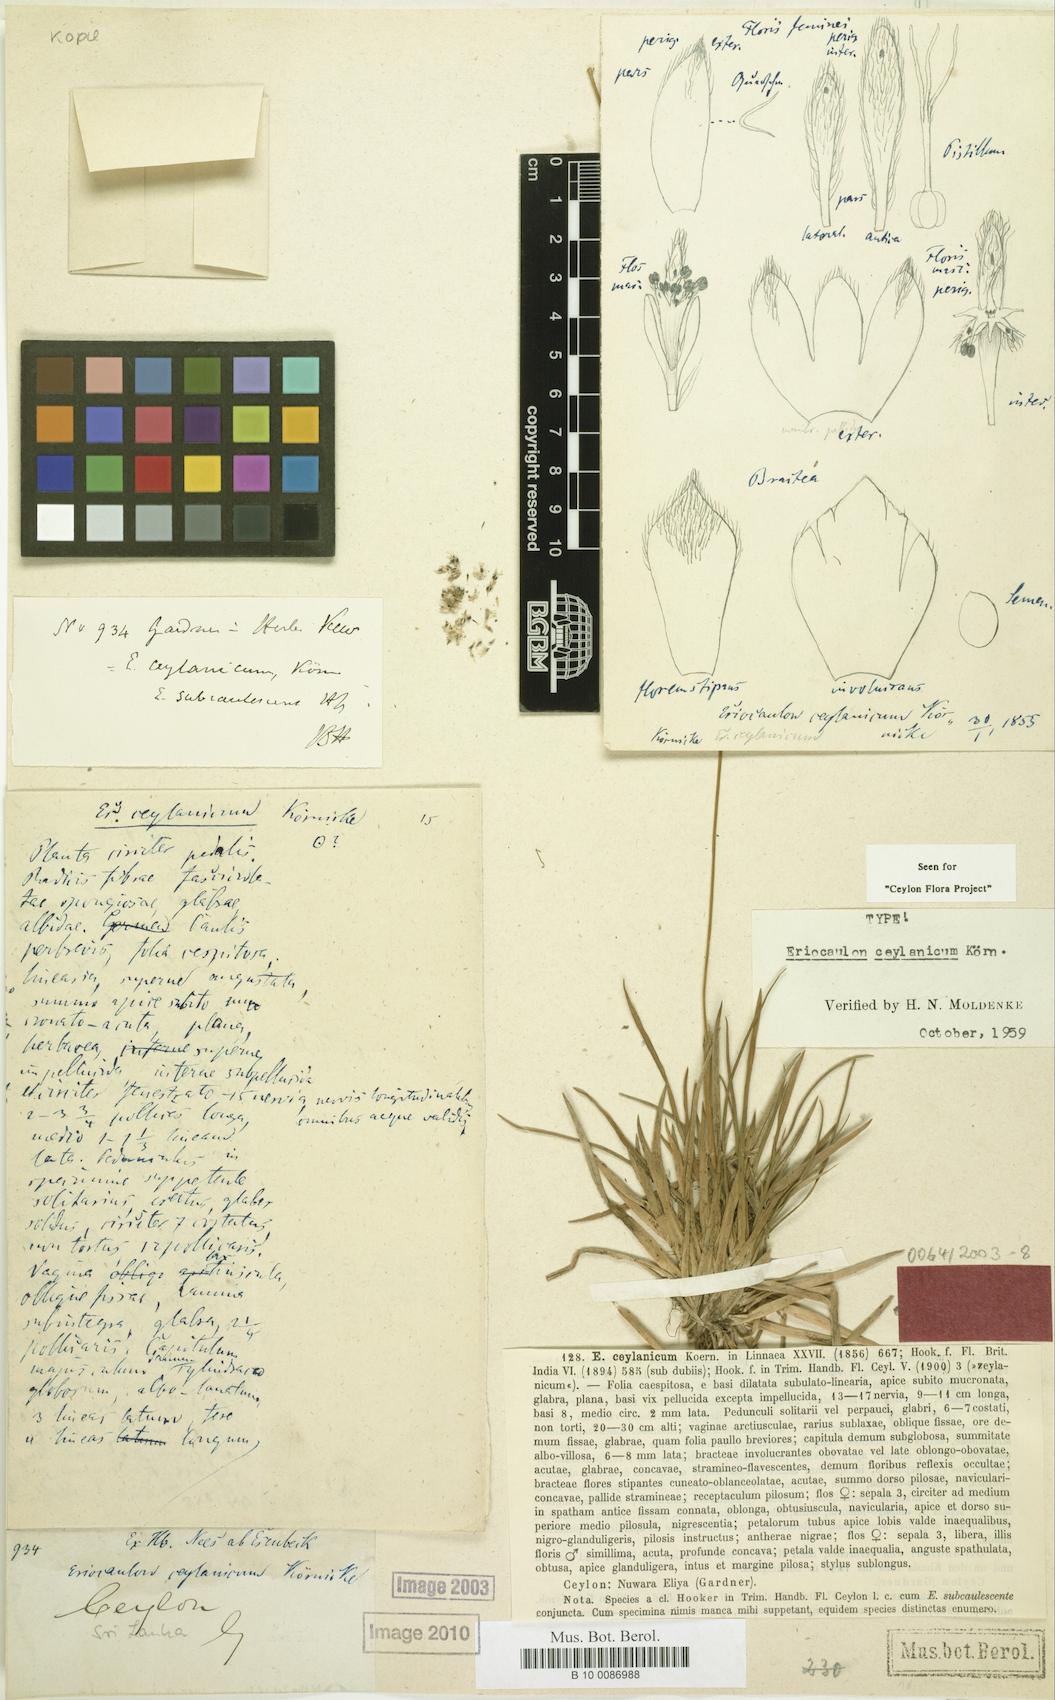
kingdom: Plantae
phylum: Tracheophyta
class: Liliopsida
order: Poales
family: Eriocaulaceae
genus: Eriocaulon
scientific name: Eriocaulon ceylanicum
